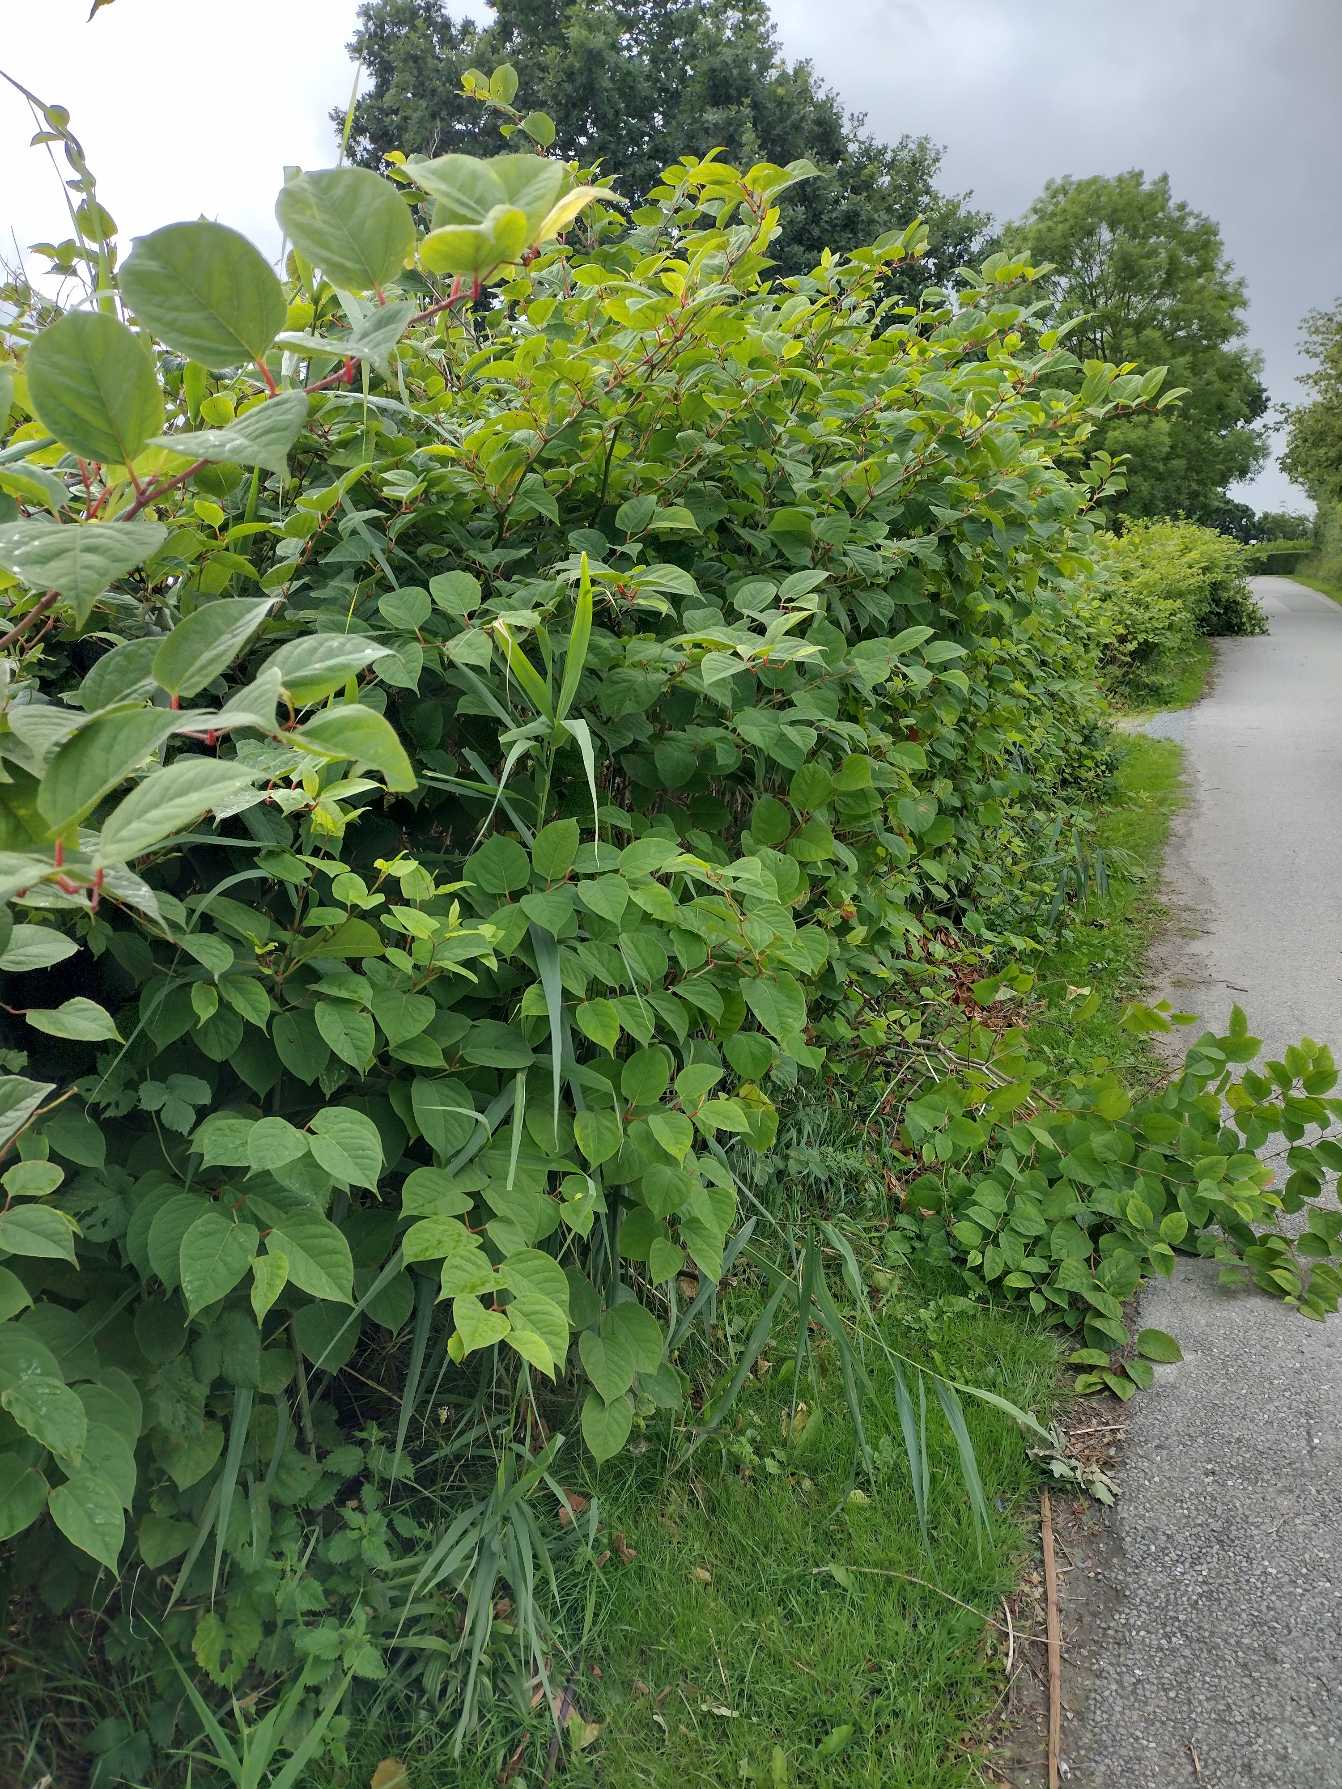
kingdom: Plantae
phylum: Tracheophyta
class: Magnoliopsida
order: Caryophyllales
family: Polygonaceae
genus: Reynoutria
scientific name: Reynoutria japonica
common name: Japan-pileurt
